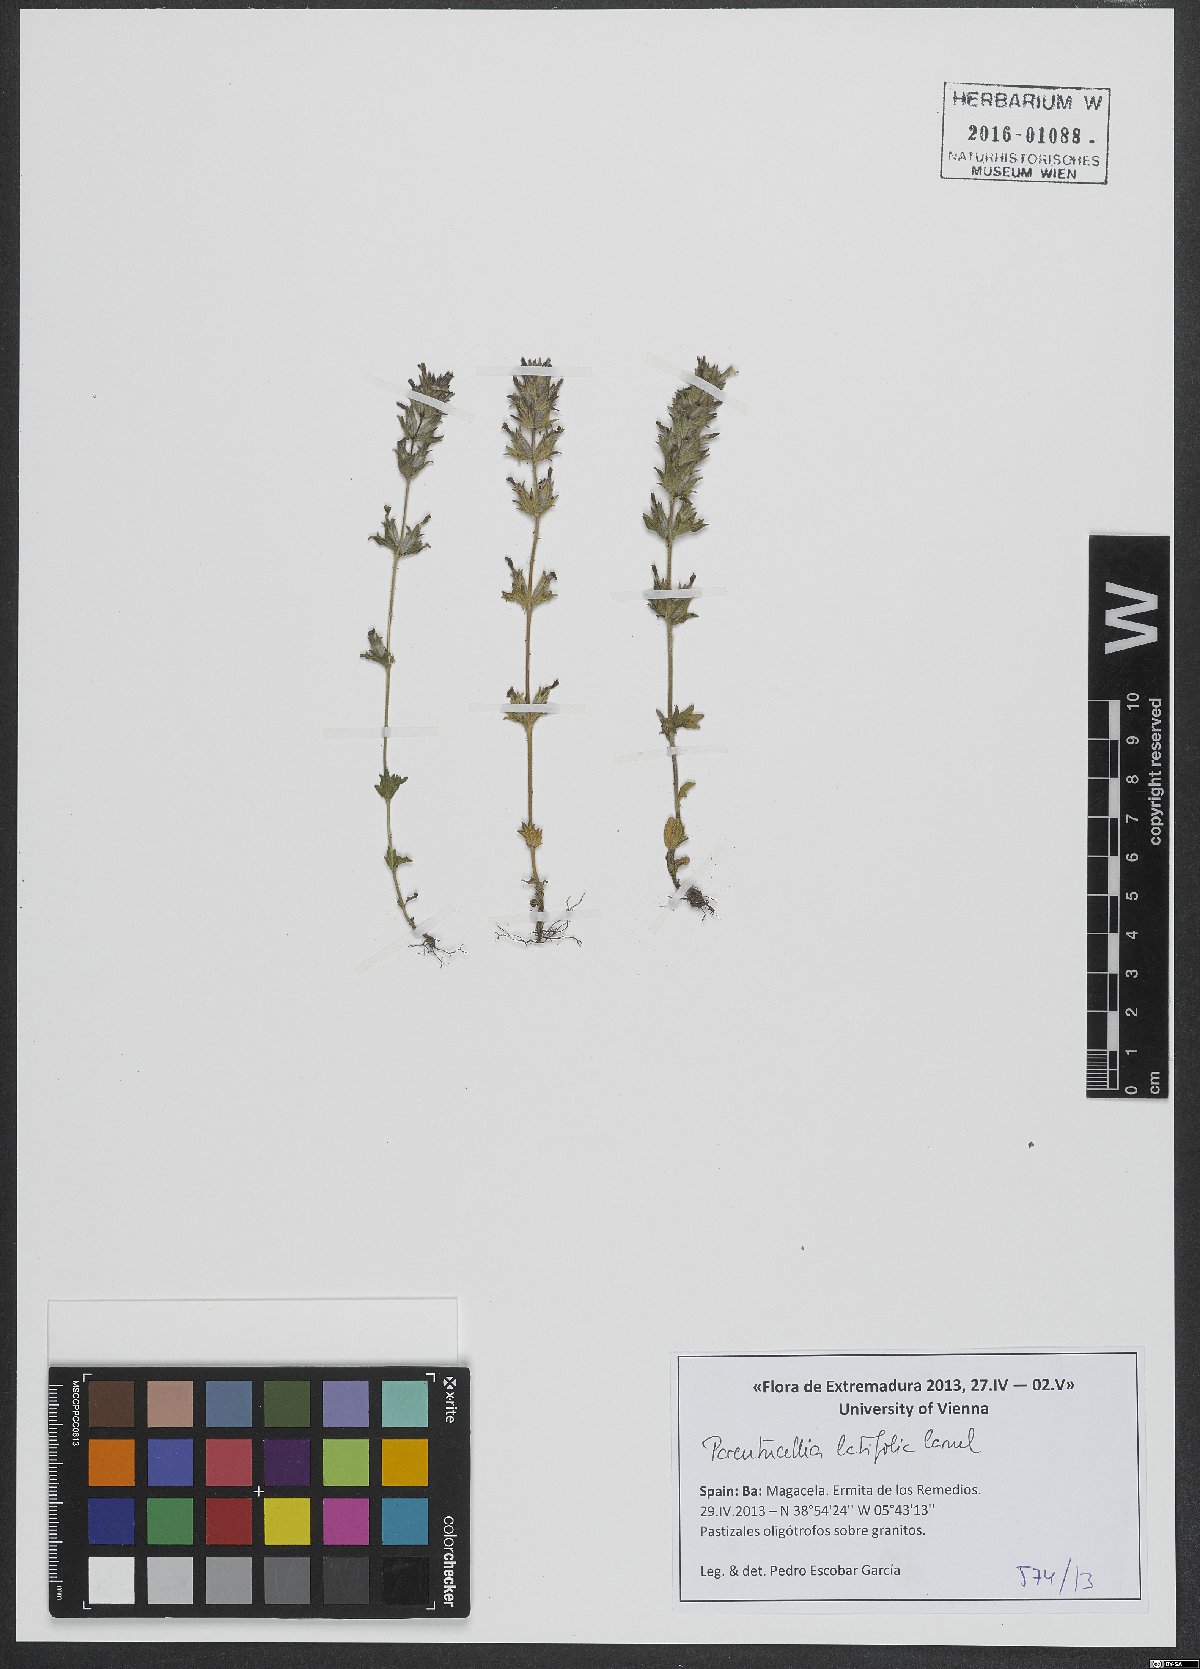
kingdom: Plantae
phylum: Tracheophyta
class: Magnoliopsida
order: Lamiales
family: Orobanchaceae
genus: Parentucellia
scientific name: Parentucellia latifolia
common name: Broadleaf glandweed
